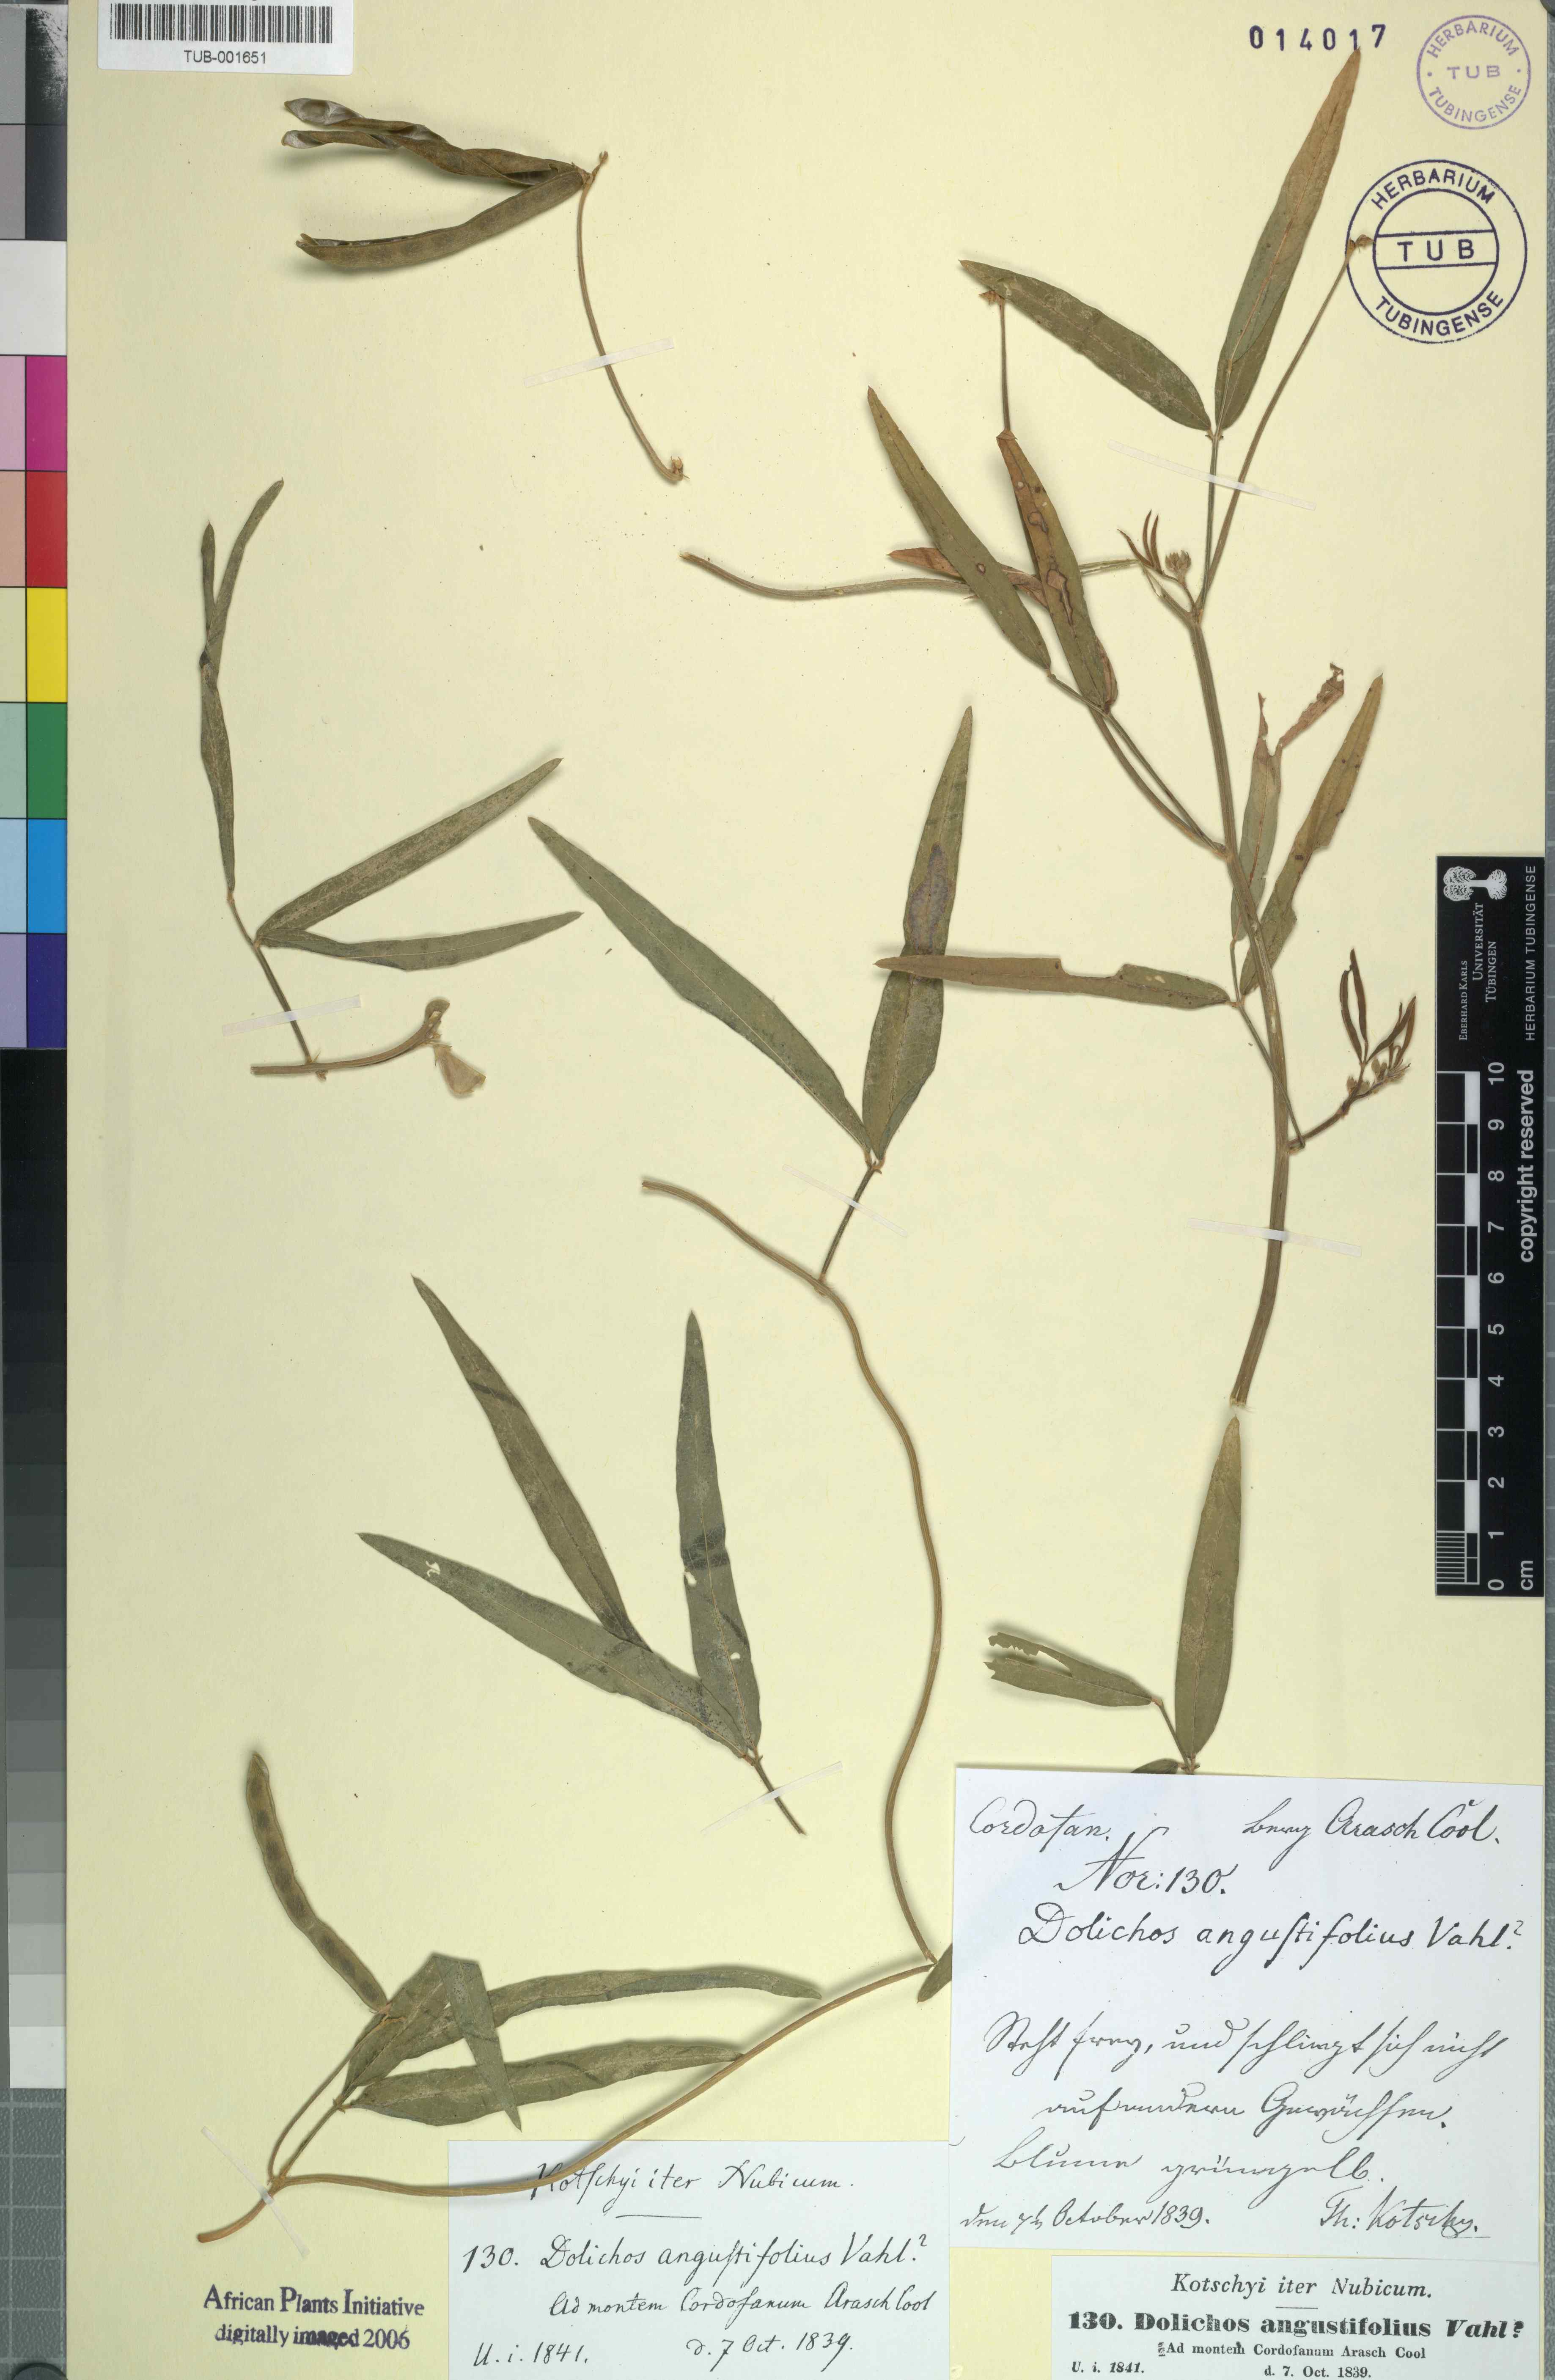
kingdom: Plantae
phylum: Tracheophyta
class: Magnoliopsida
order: Fabales
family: Fabaceae
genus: Vigna
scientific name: Vigna vexillata
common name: Zombi pea
